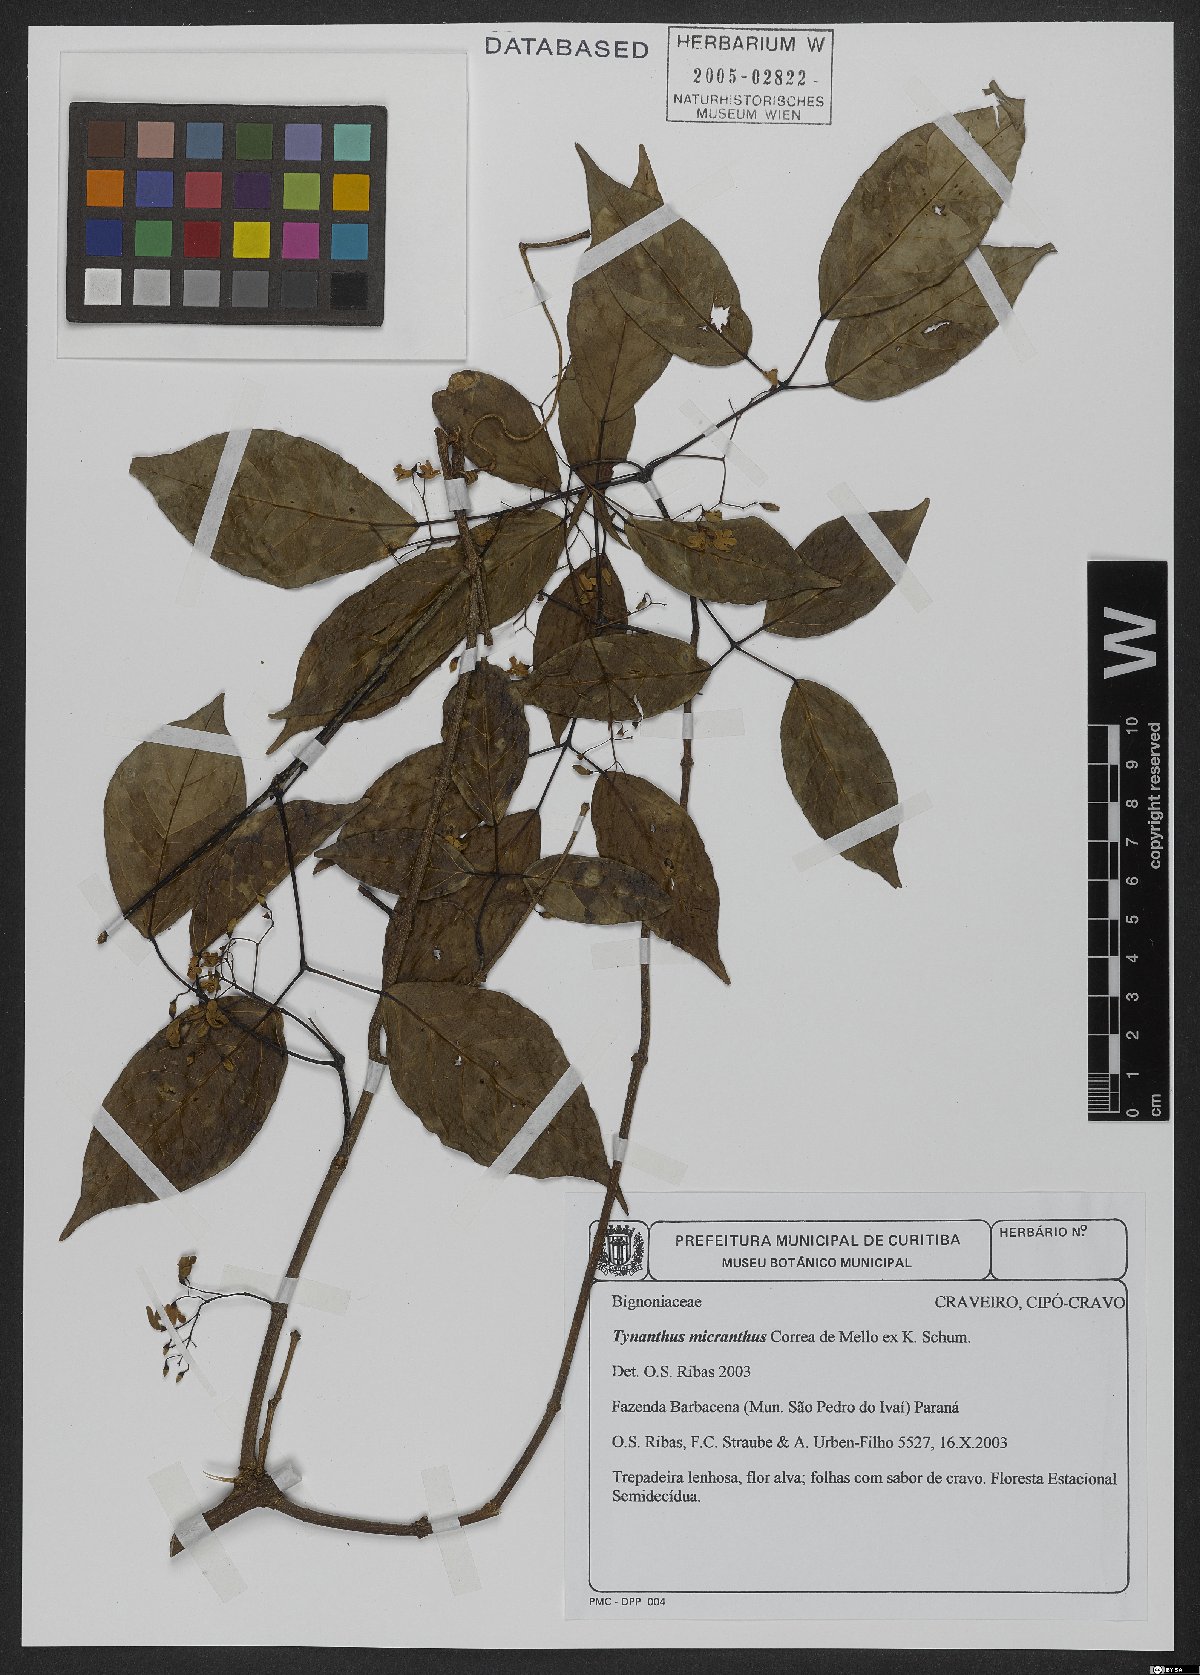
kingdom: Plantae
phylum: Tracheophyta
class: Magnoliopsida
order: Lamiales
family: Bignoniaceae
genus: Tynanthus
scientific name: Tynanthus micranthus
